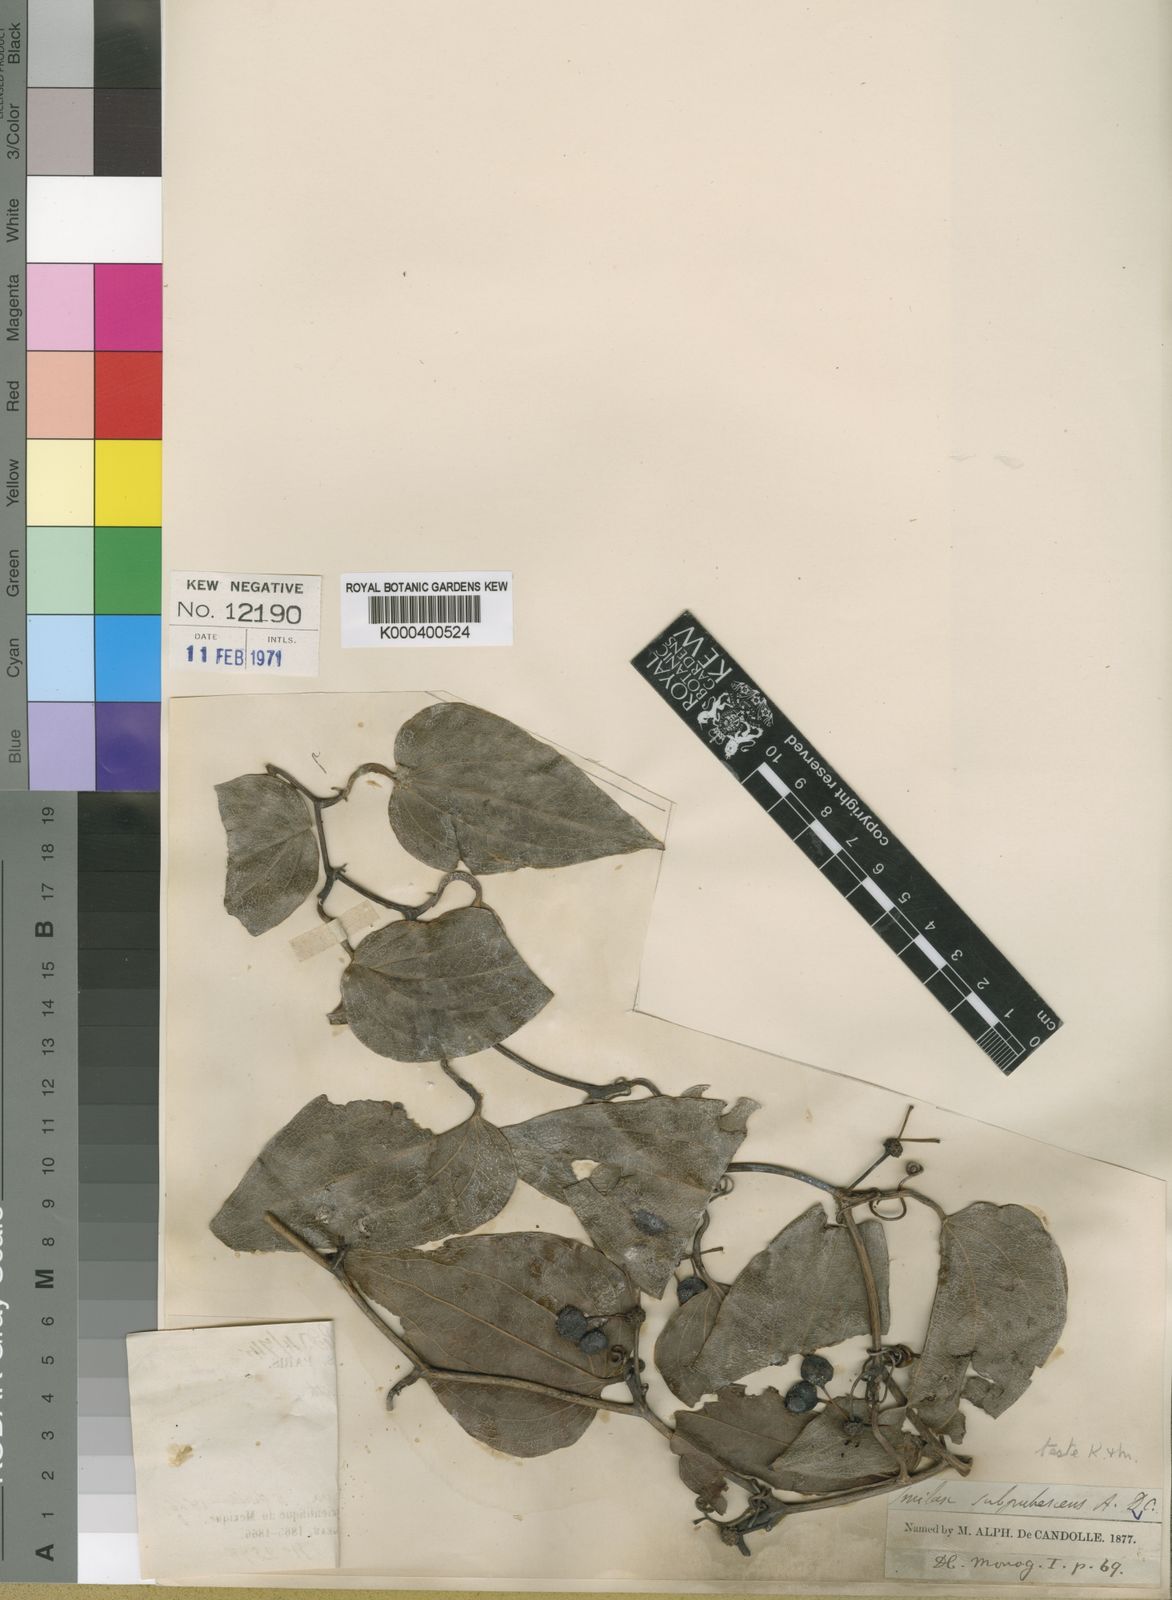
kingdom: Plantae
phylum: Tracheophyta
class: Liliopsida
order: Liliales
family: Smilacaceae
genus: Smilax
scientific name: Smilax subpubescens
